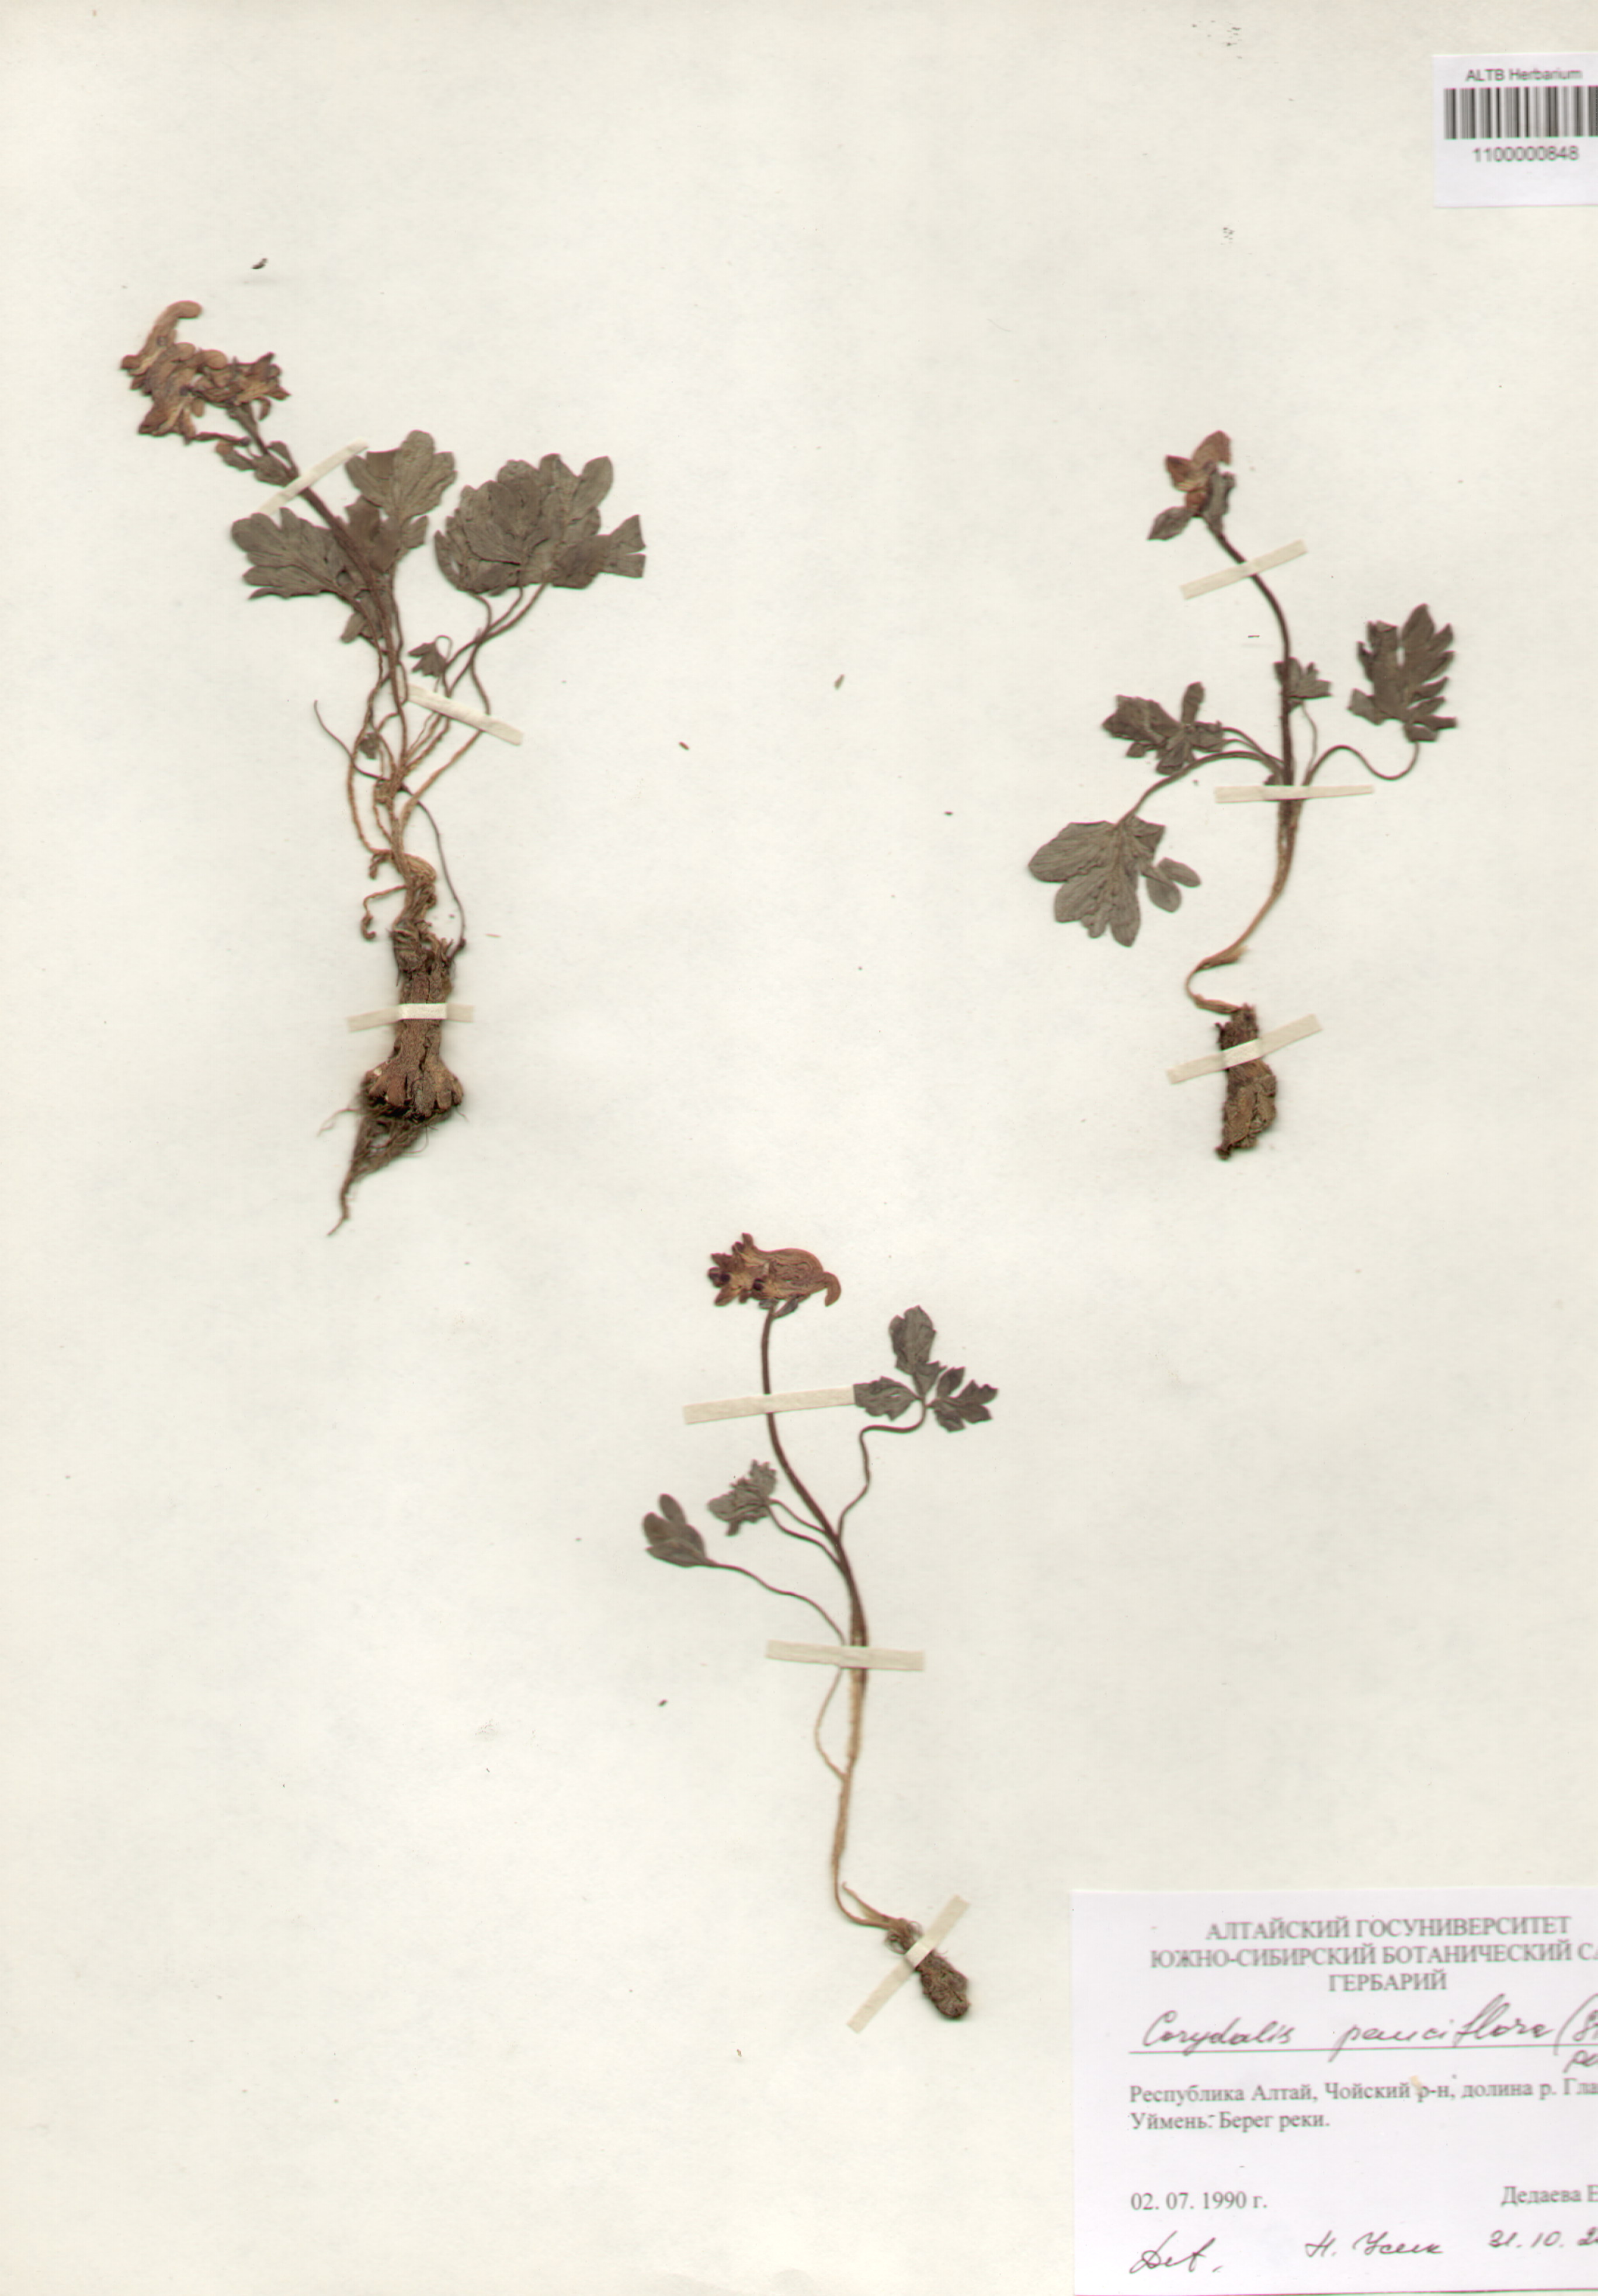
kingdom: Plantae
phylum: Tracheophyta
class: Magnoliopsida
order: Ranunculales
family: Papaveraceae
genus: Corydalis
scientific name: Corydalis pauciflora
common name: Blue corydalis
